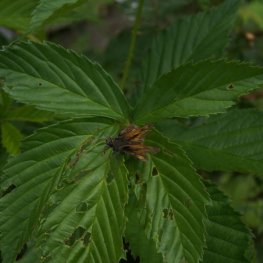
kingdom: Animalia
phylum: Arthropoda
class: Insecta
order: Lepidoptera
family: Hesperiidae
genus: Polites
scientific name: Polites
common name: Long Dash Skipper
